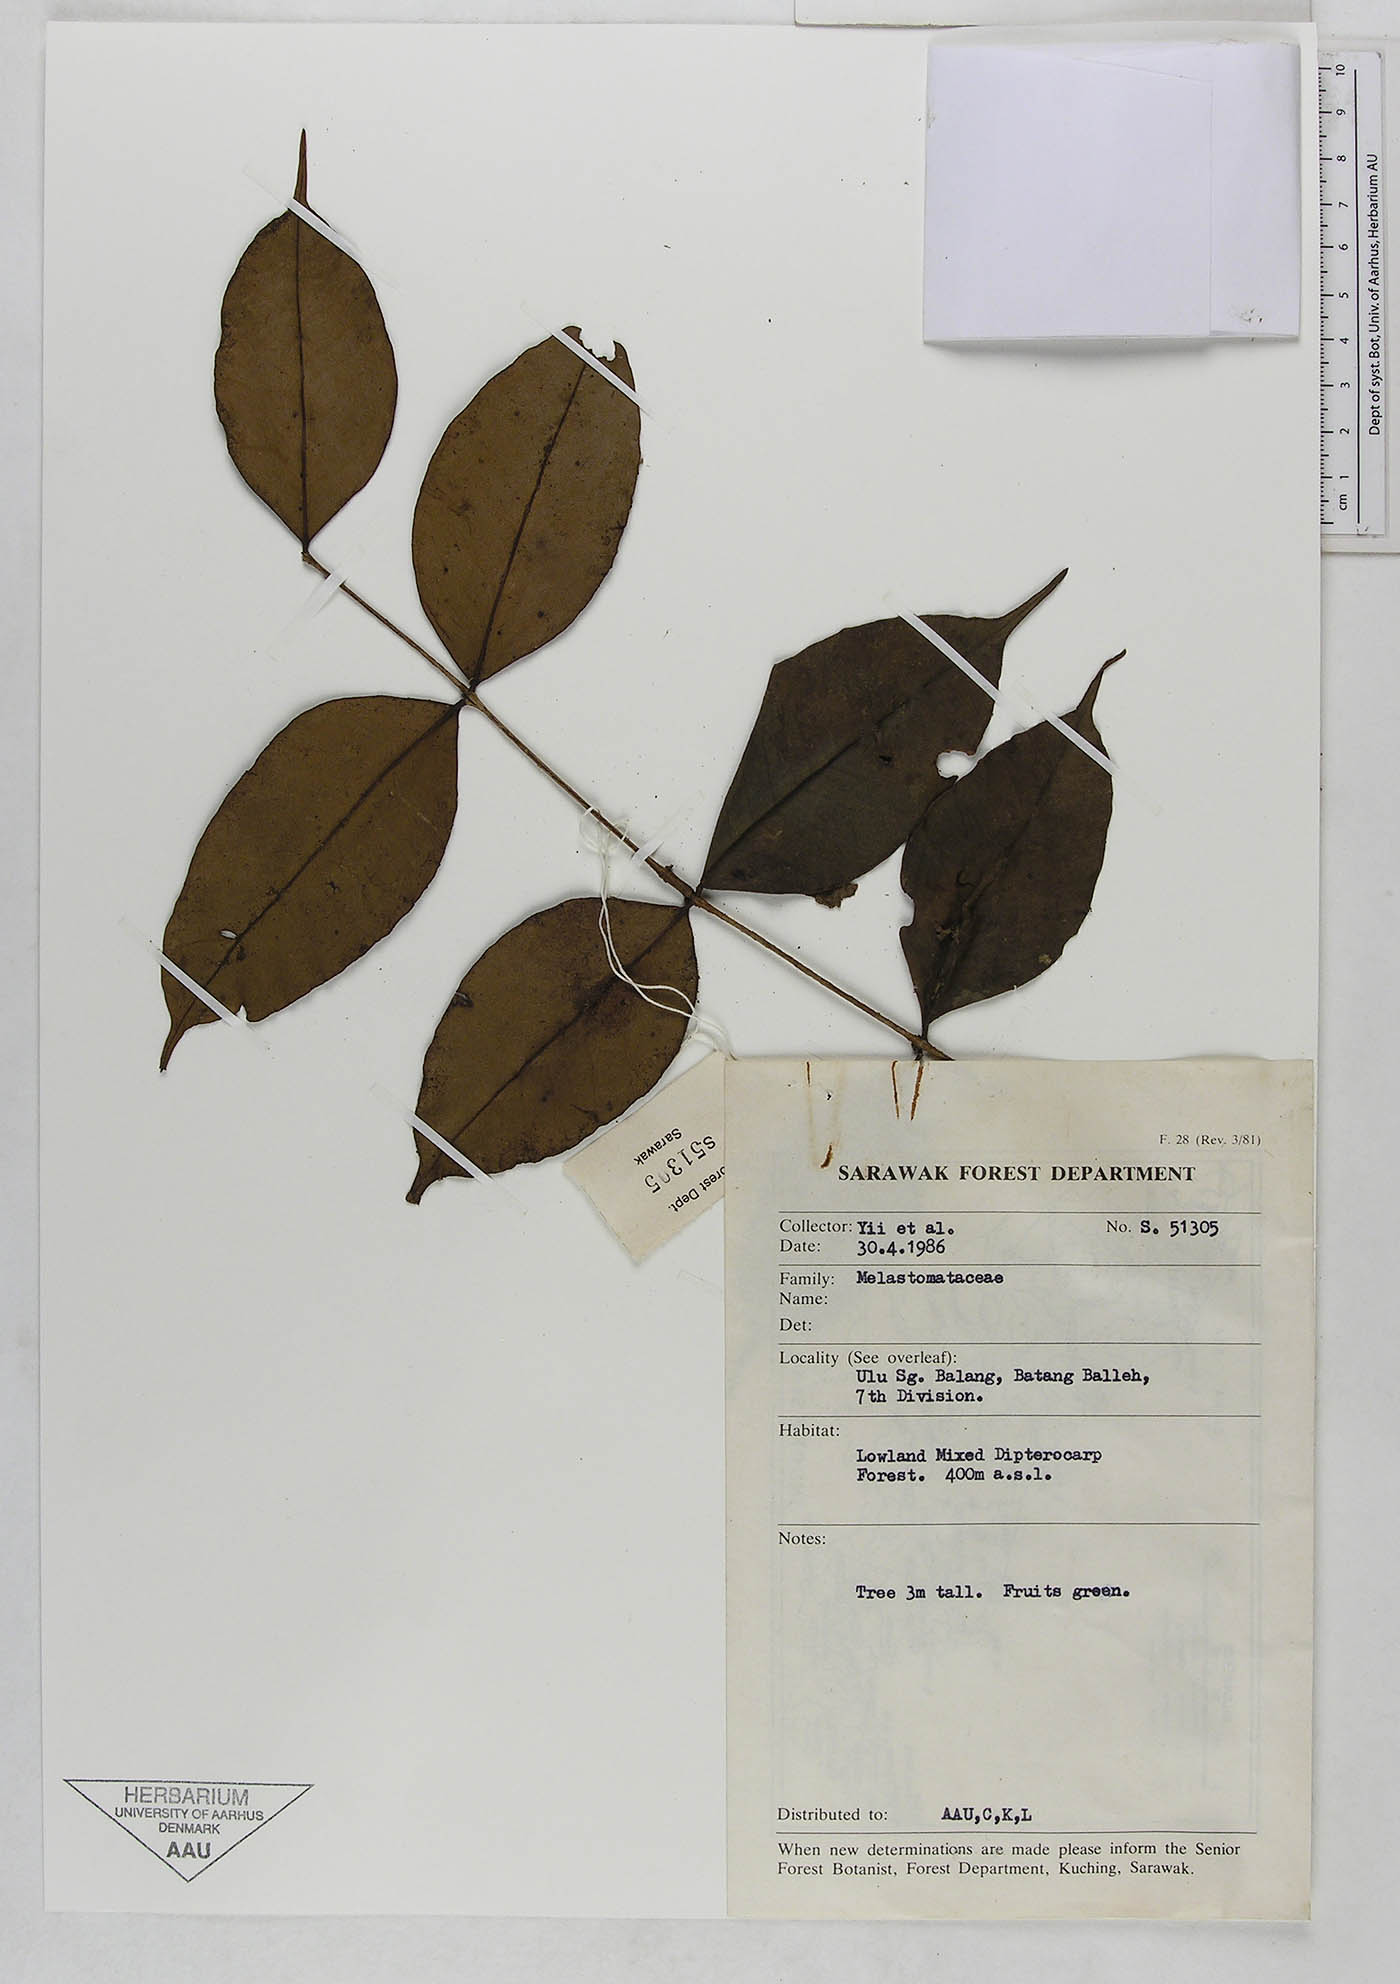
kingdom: Plantae
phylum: Tracheophyta
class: Magnoliopsida
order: Myrtales
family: Melastomataceae
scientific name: Melastomataceae
